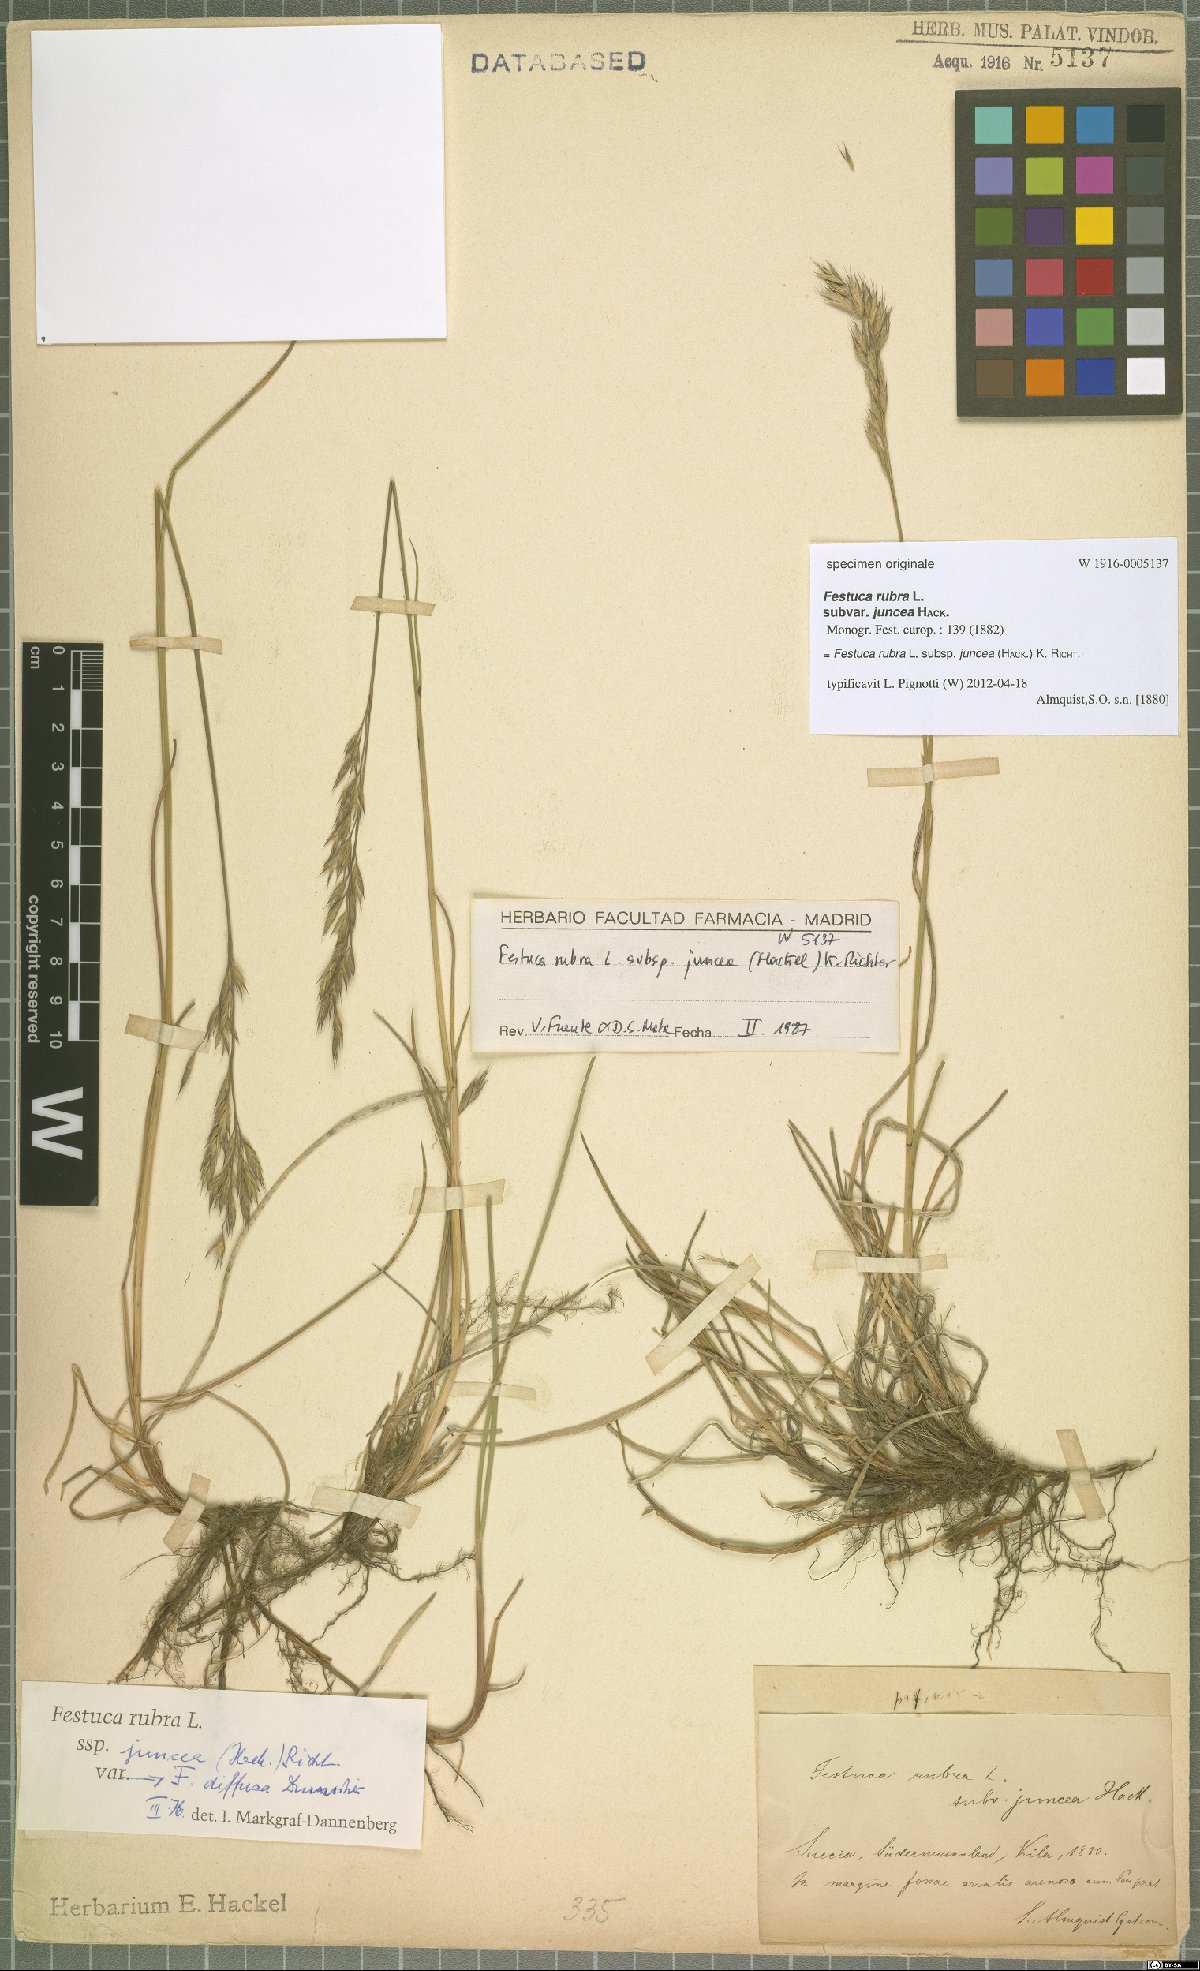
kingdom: Plantae
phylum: Tracheophyta
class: Liliopsida
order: Poales
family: Poaceae
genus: Festuca
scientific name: Festuca rubra
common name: Red fescue
